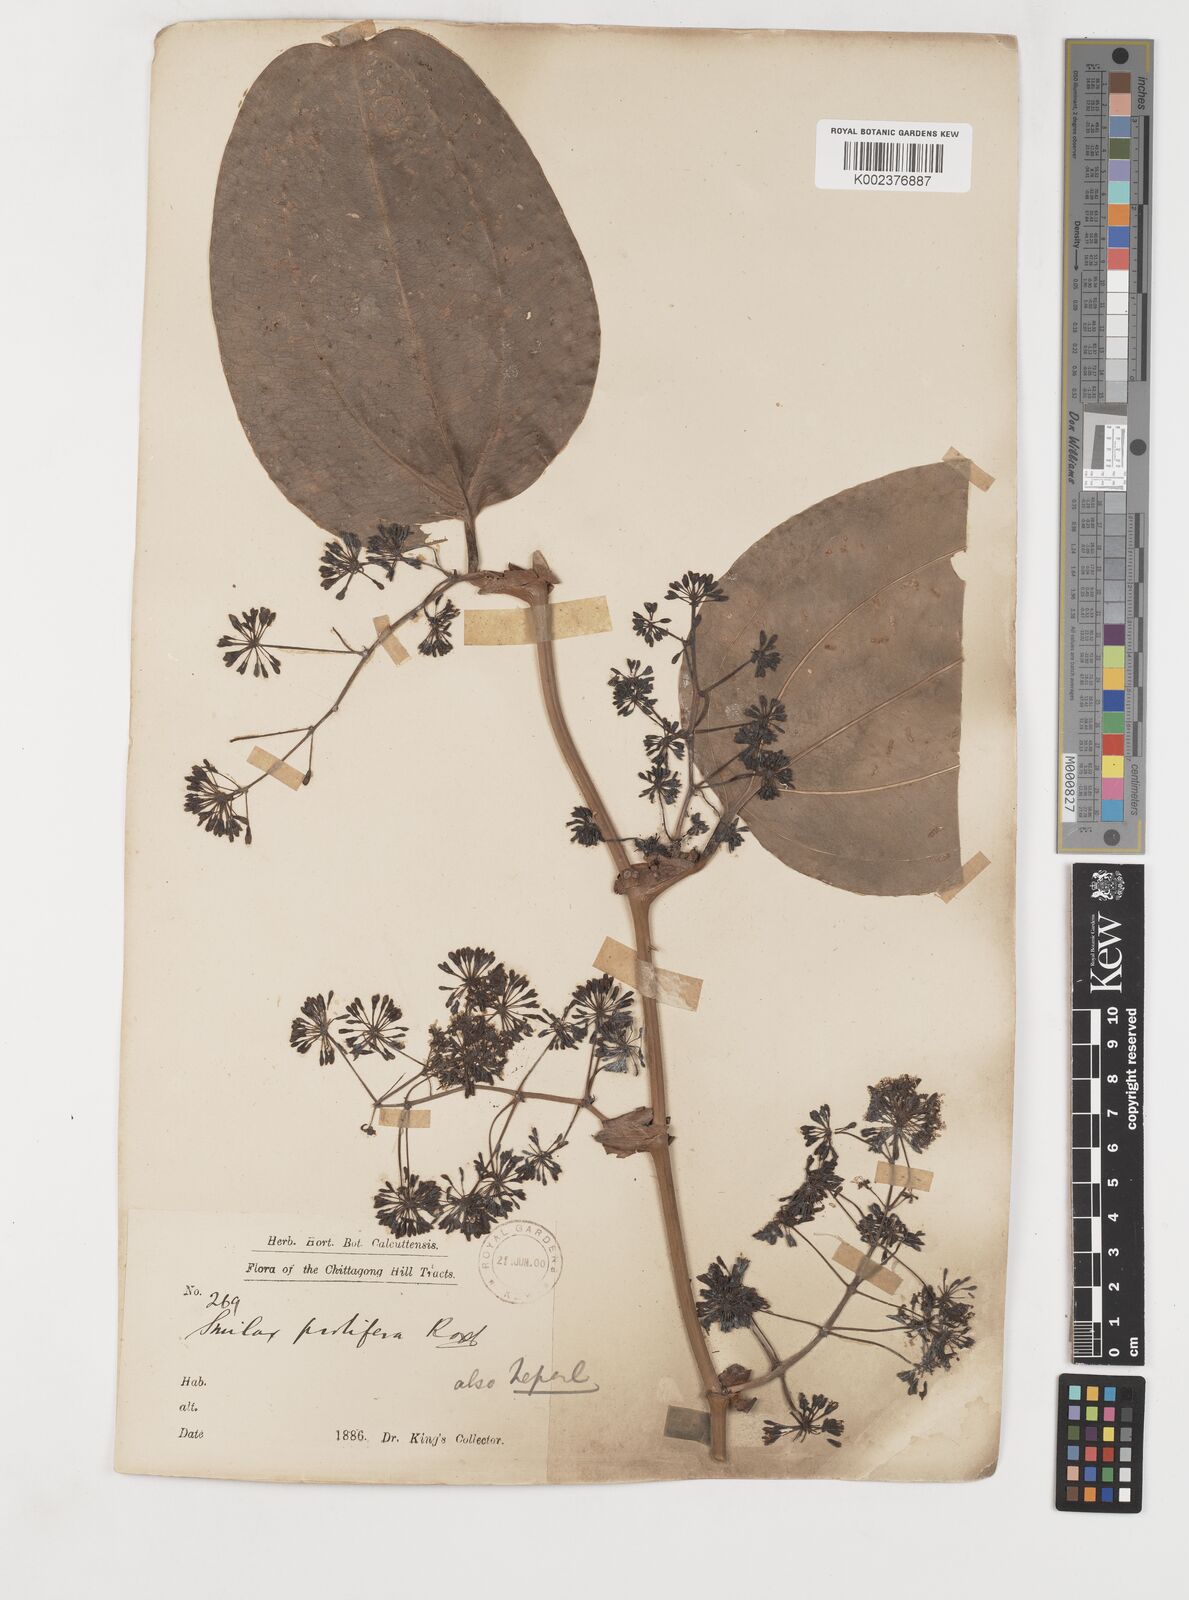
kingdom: Plantae
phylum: Tracheophyta
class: Liliopsida
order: Liliales
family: Smilacaceae
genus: Smilax
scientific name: Smilax prolifera
